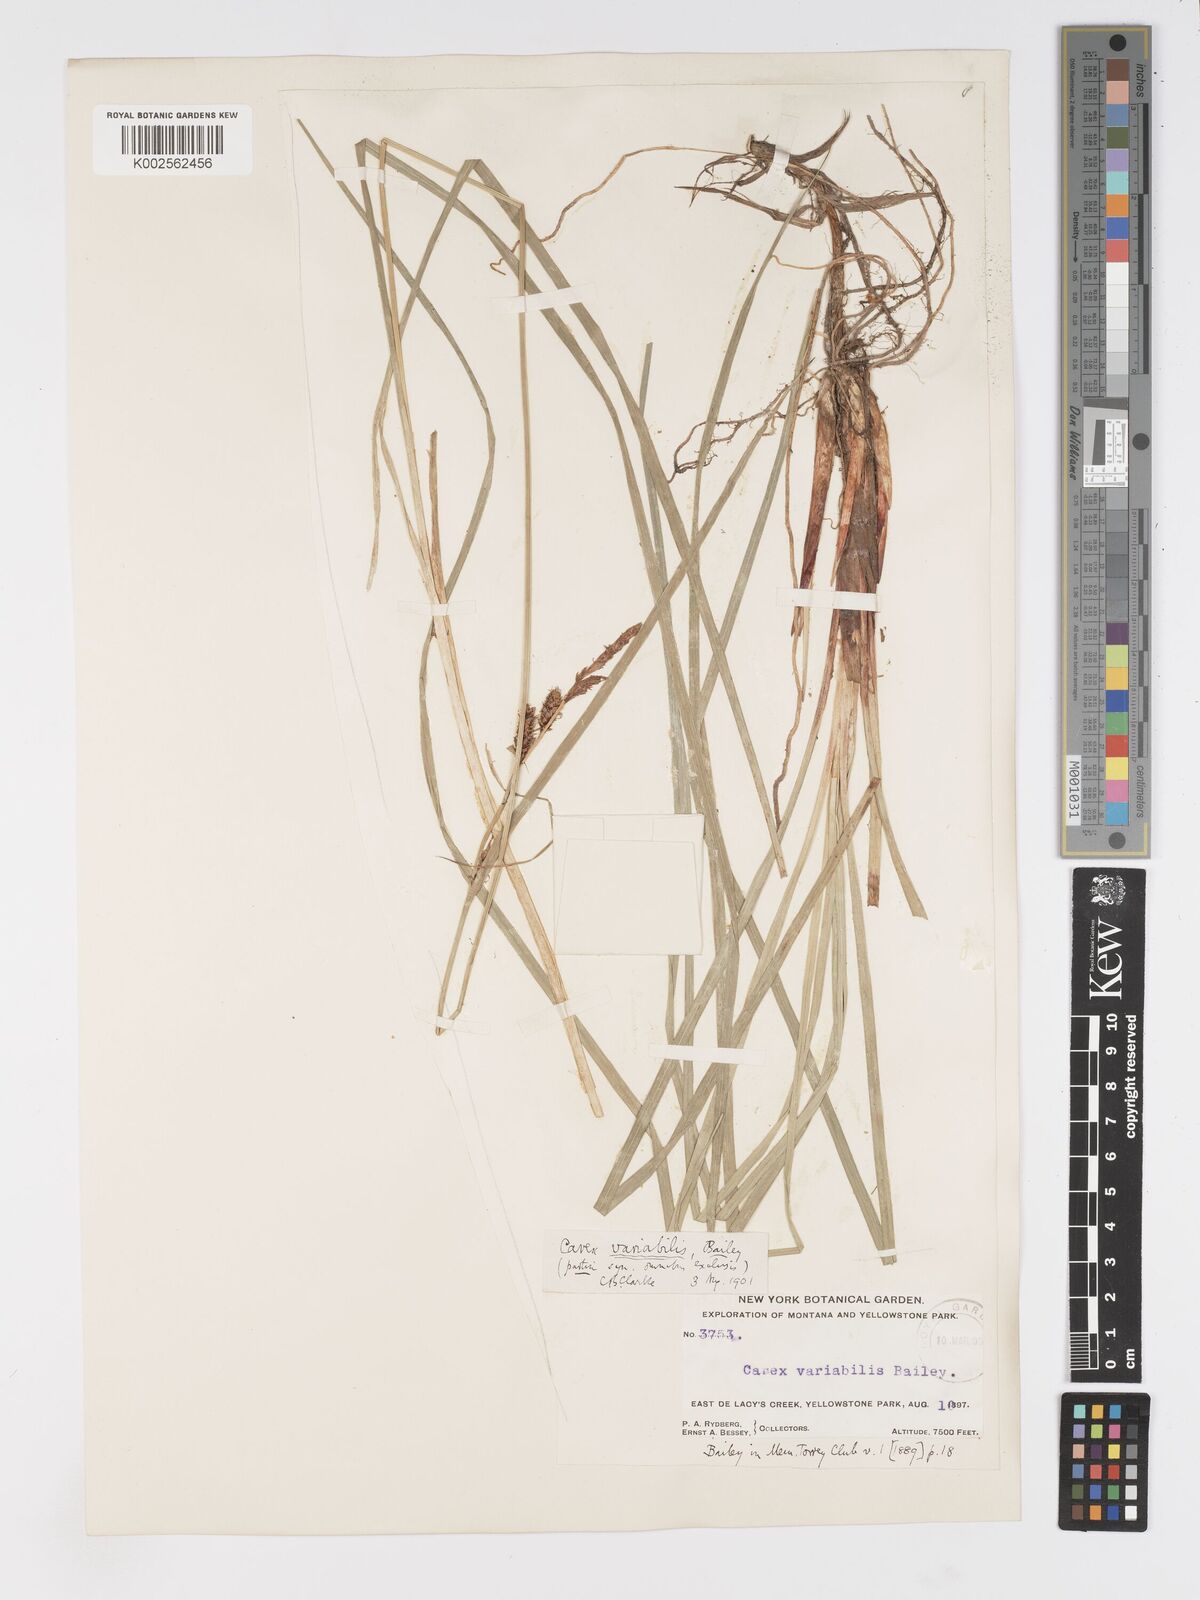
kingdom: Plantae
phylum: Tracheophyta
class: Liliopsida
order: Poales
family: Cyperaceae
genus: Carex
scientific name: Carex
